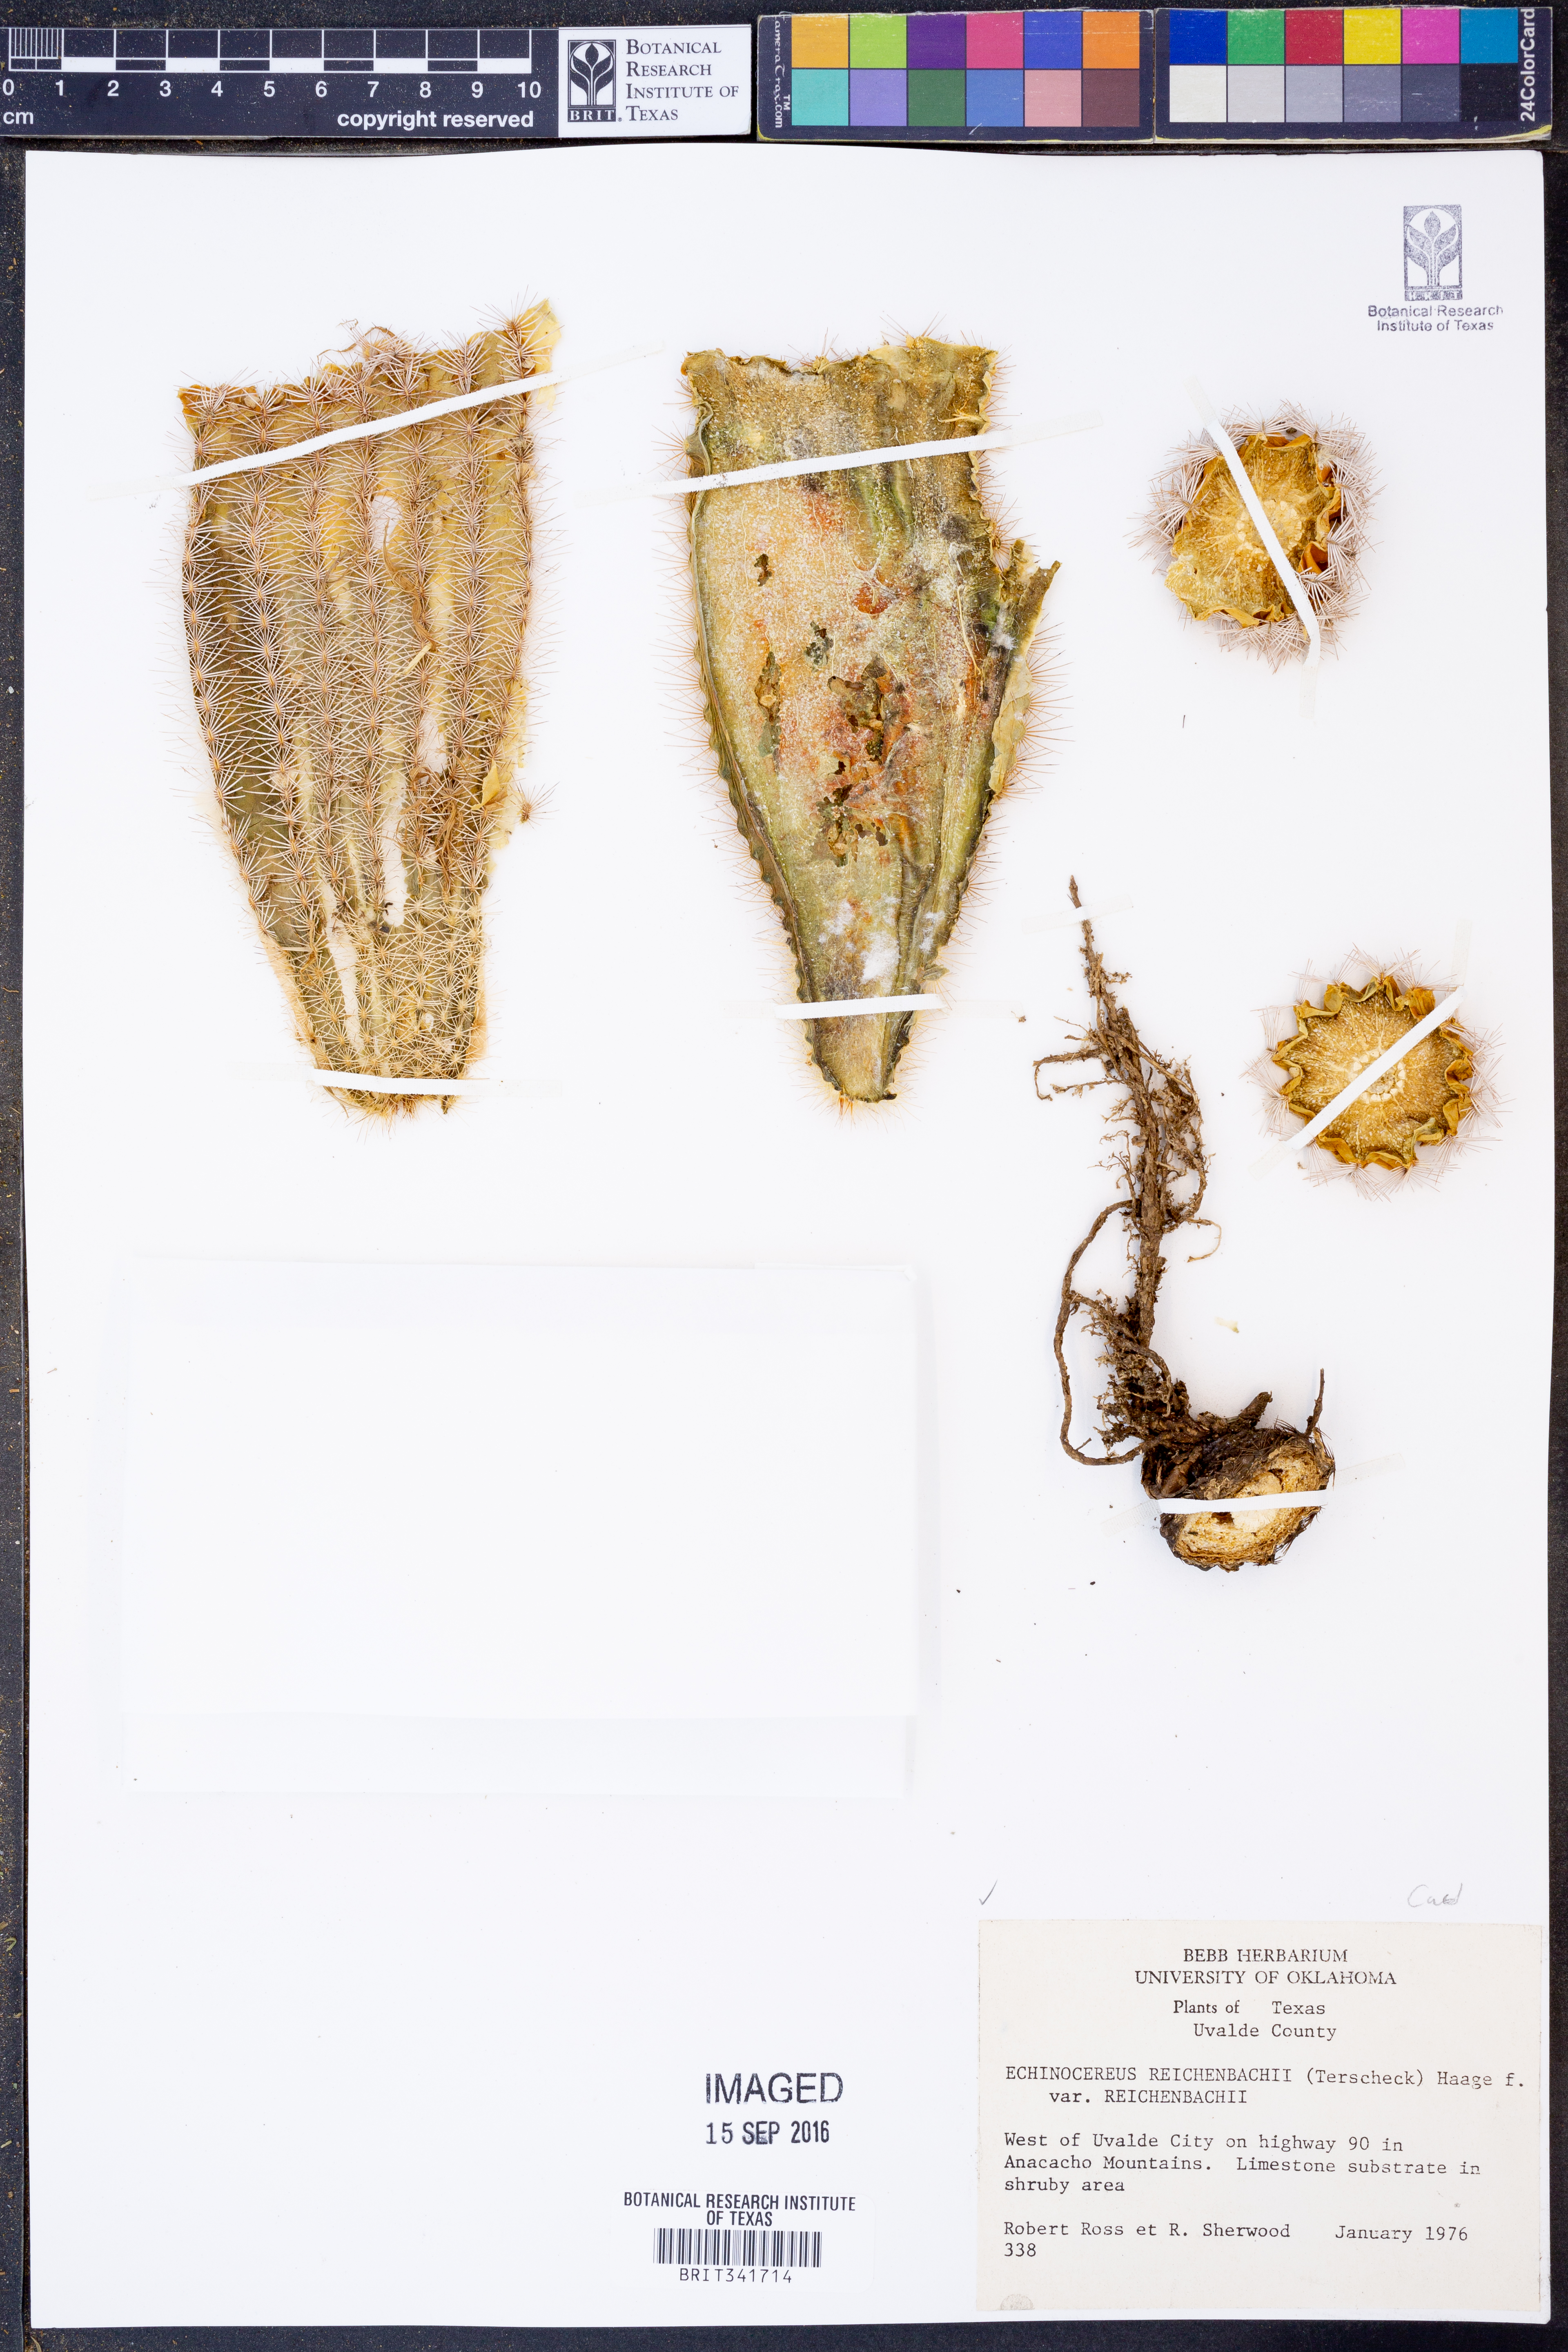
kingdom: Plantae
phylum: Tracheophyta
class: Magnoliopsida
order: Caryophyllales
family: Cactaceae
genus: Echinocereus
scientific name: Echinocereus reichenbachii
